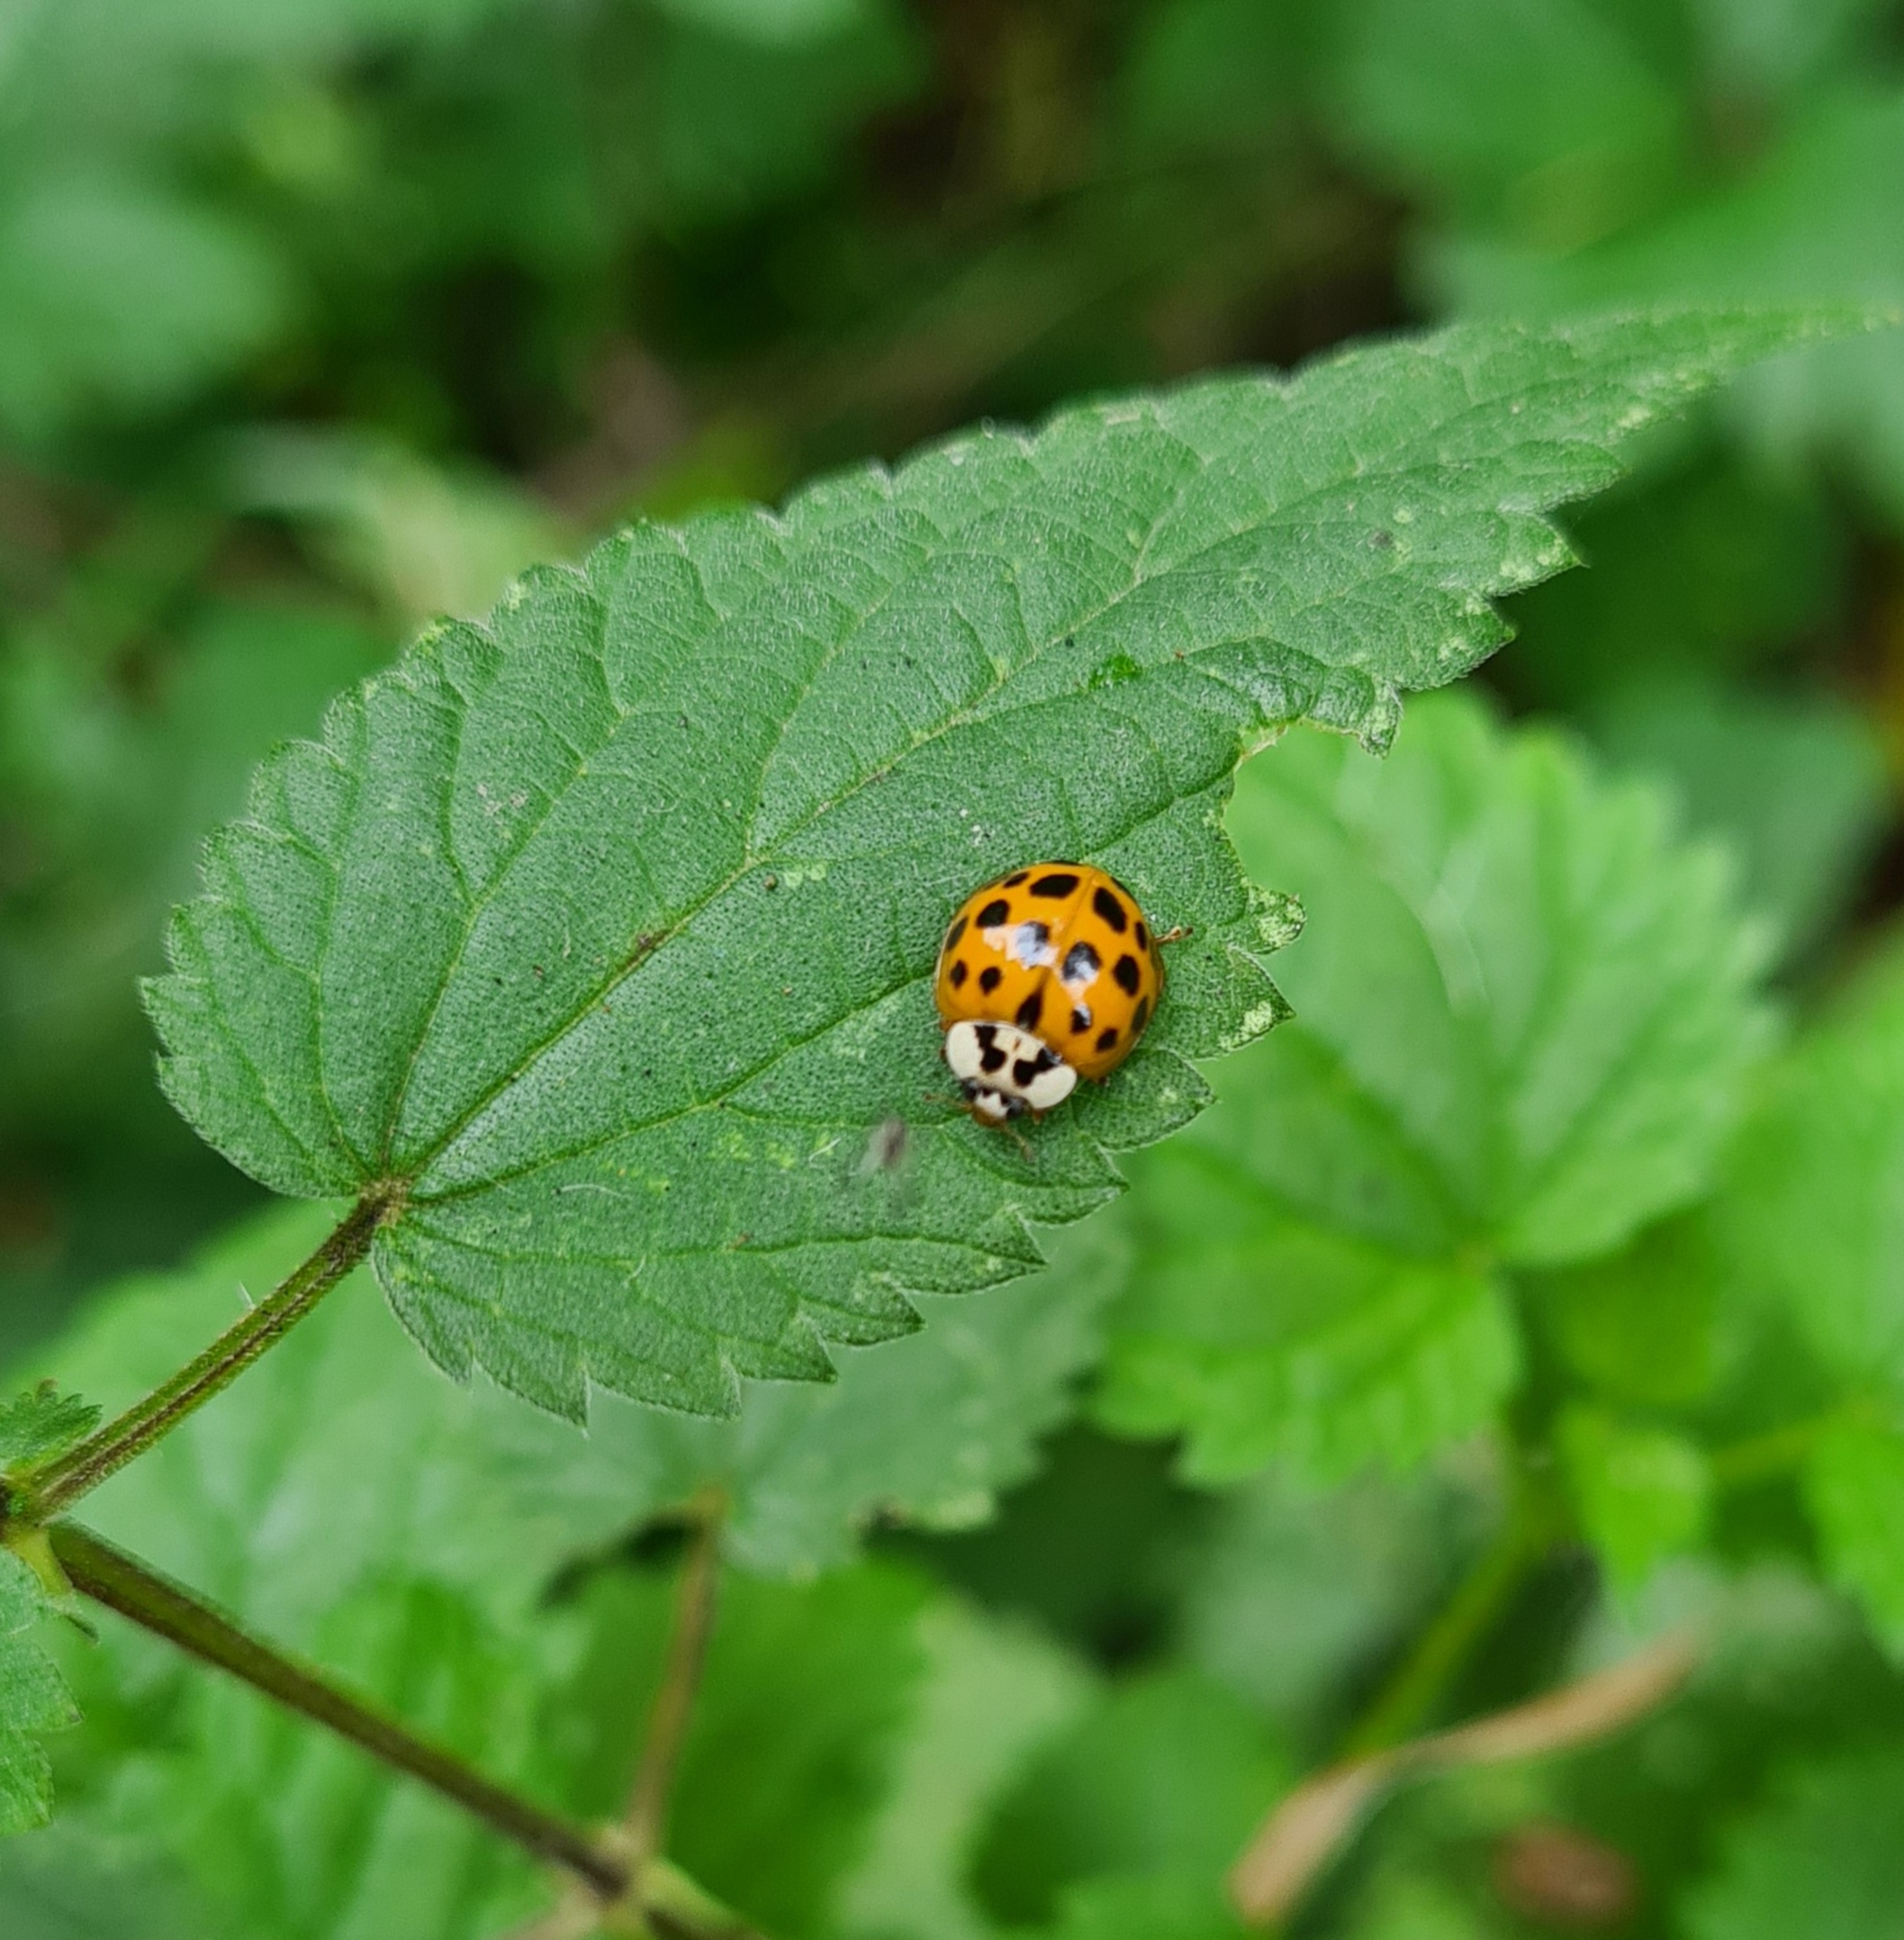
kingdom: Animalia
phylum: Arthropoda
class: Insecta
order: Coleoptera
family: Coccinellidae
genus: Harmonia
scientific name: Harmonia axyridis
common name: Harlekinmariehøne
